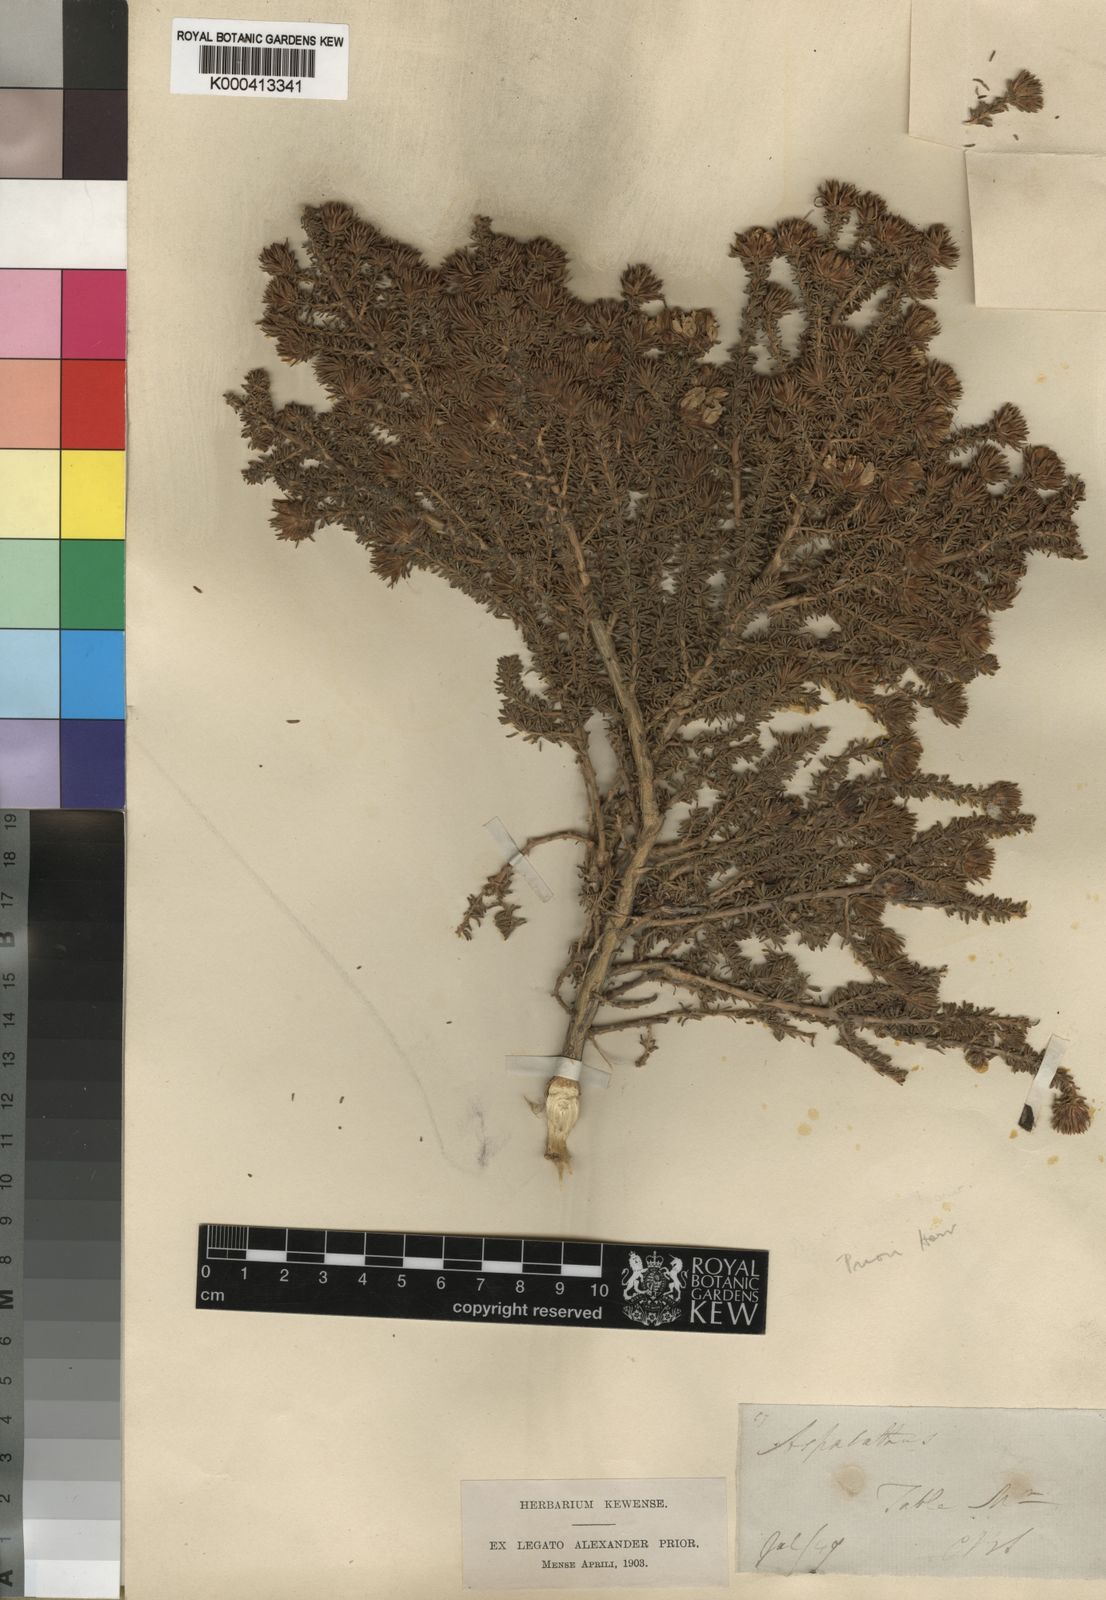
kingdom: Plantae
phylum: Tracheophyta
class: Magnoliopsida
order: Fabales
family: Fabaceae
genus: Aspalathus
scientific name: Aspalathus forbesii
